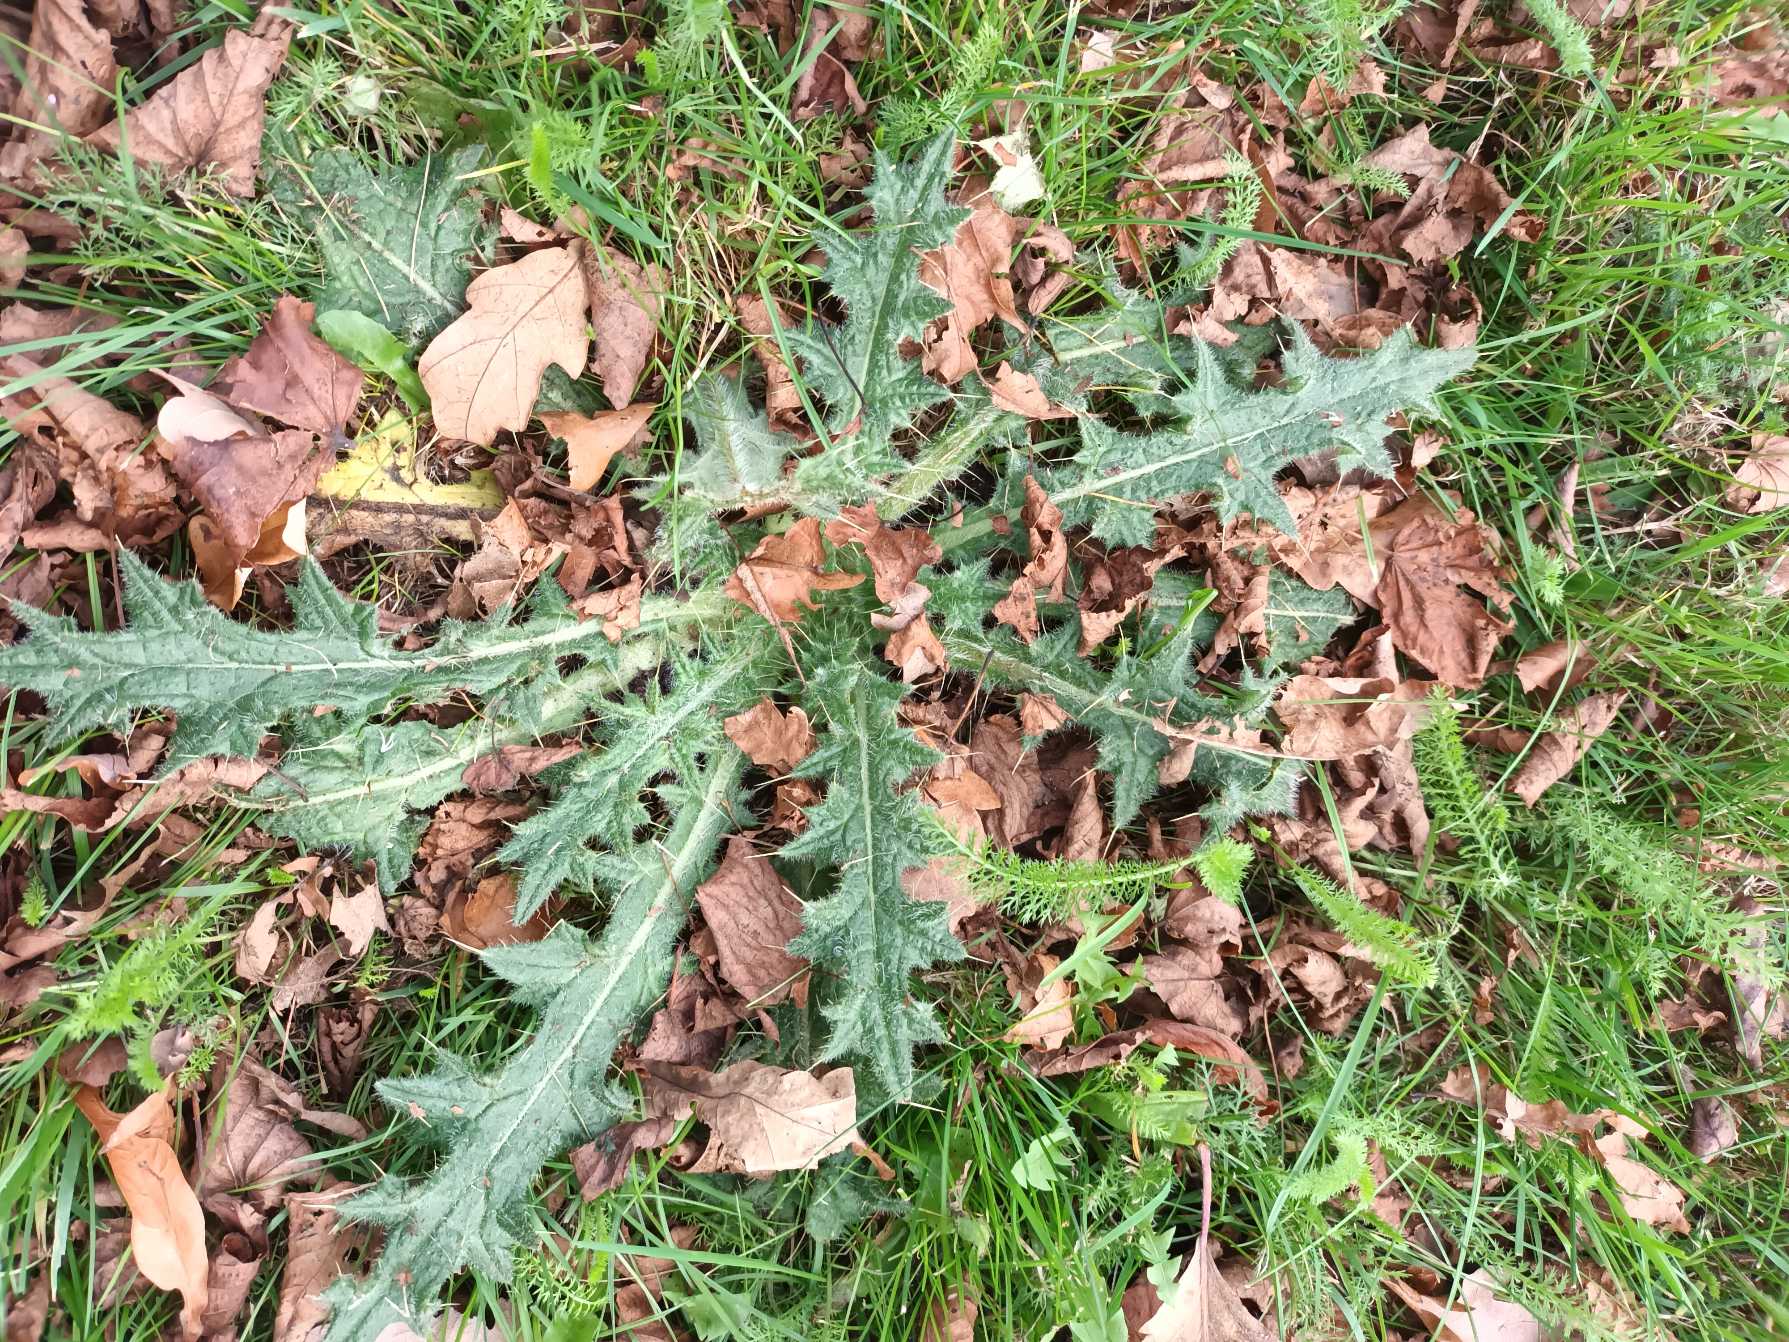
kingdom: Plantae
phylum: Tracheophyta
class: Magnoliopsida
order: Asterales
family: Asteraceae
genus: Cirsium
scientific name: Cirsium vulgare
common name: Horse-tidsel
